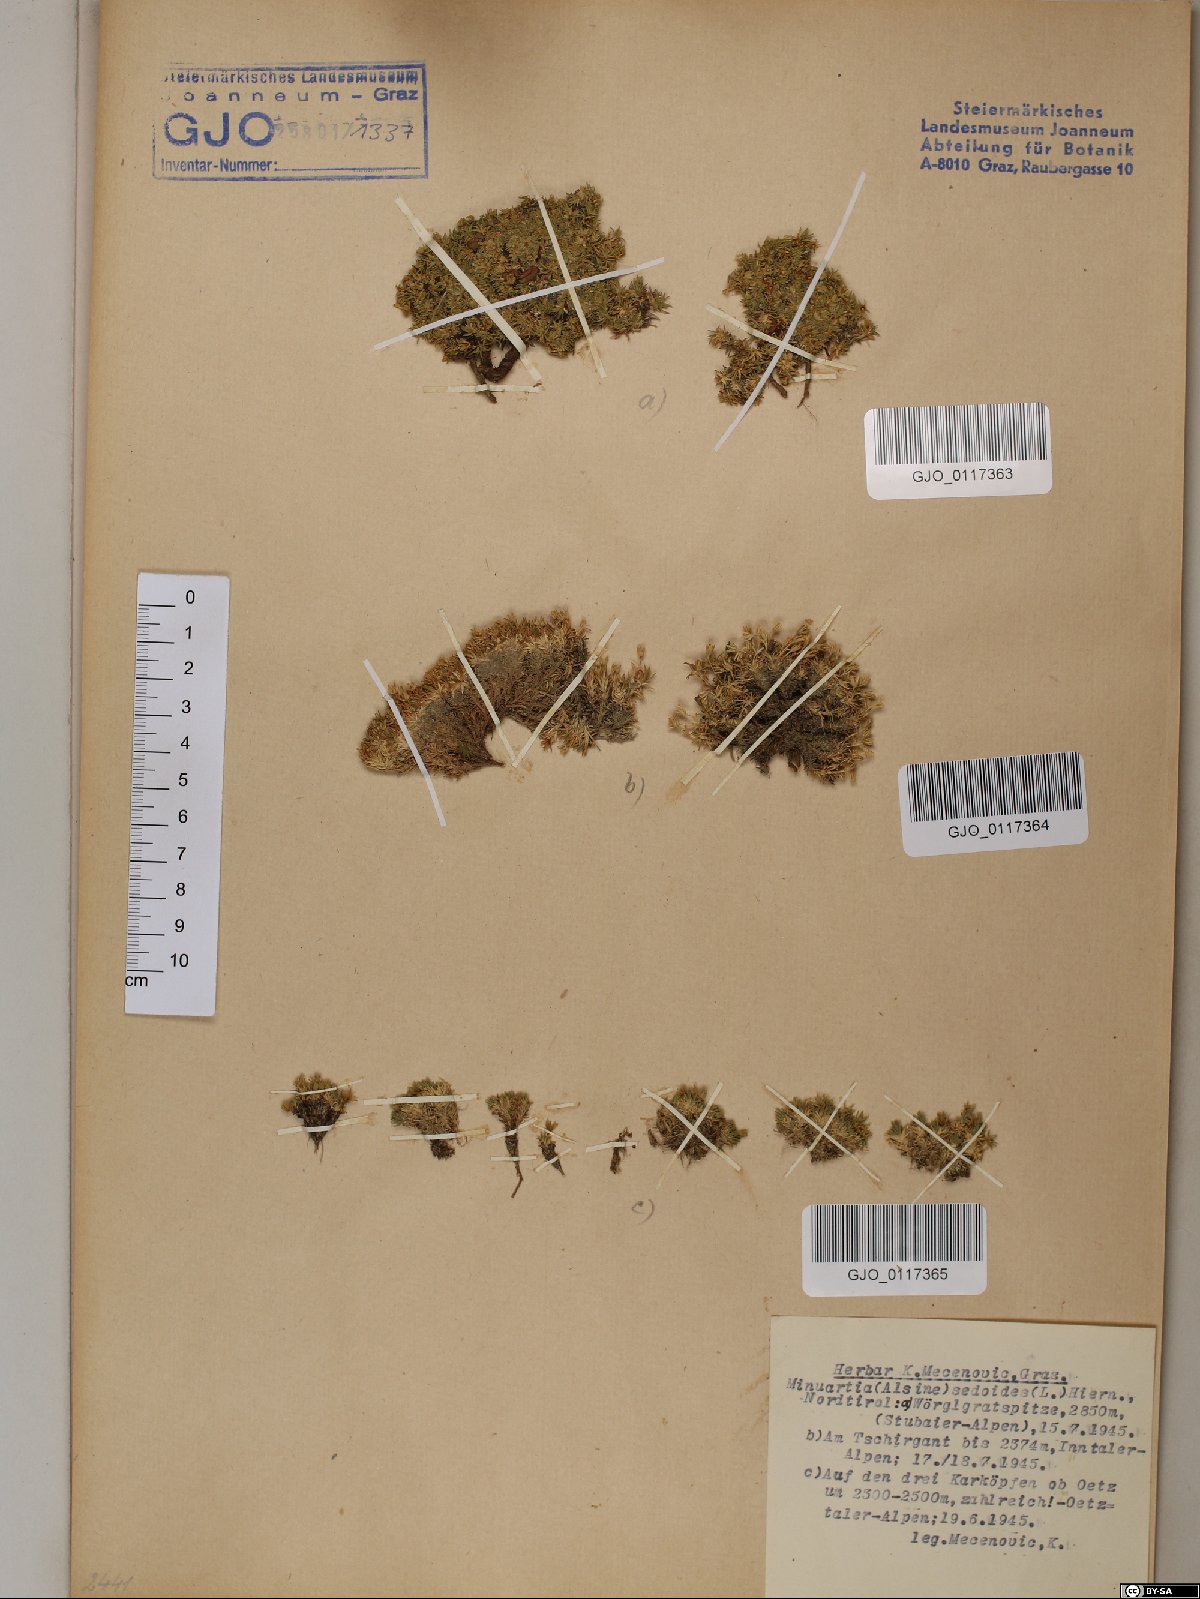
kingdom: Plantae
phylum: Tracheophyta
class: Magnoliopsida
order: Caryophyllales
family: Caryophyllaceae
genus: Cherleria
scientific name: Cherleria sedoides
